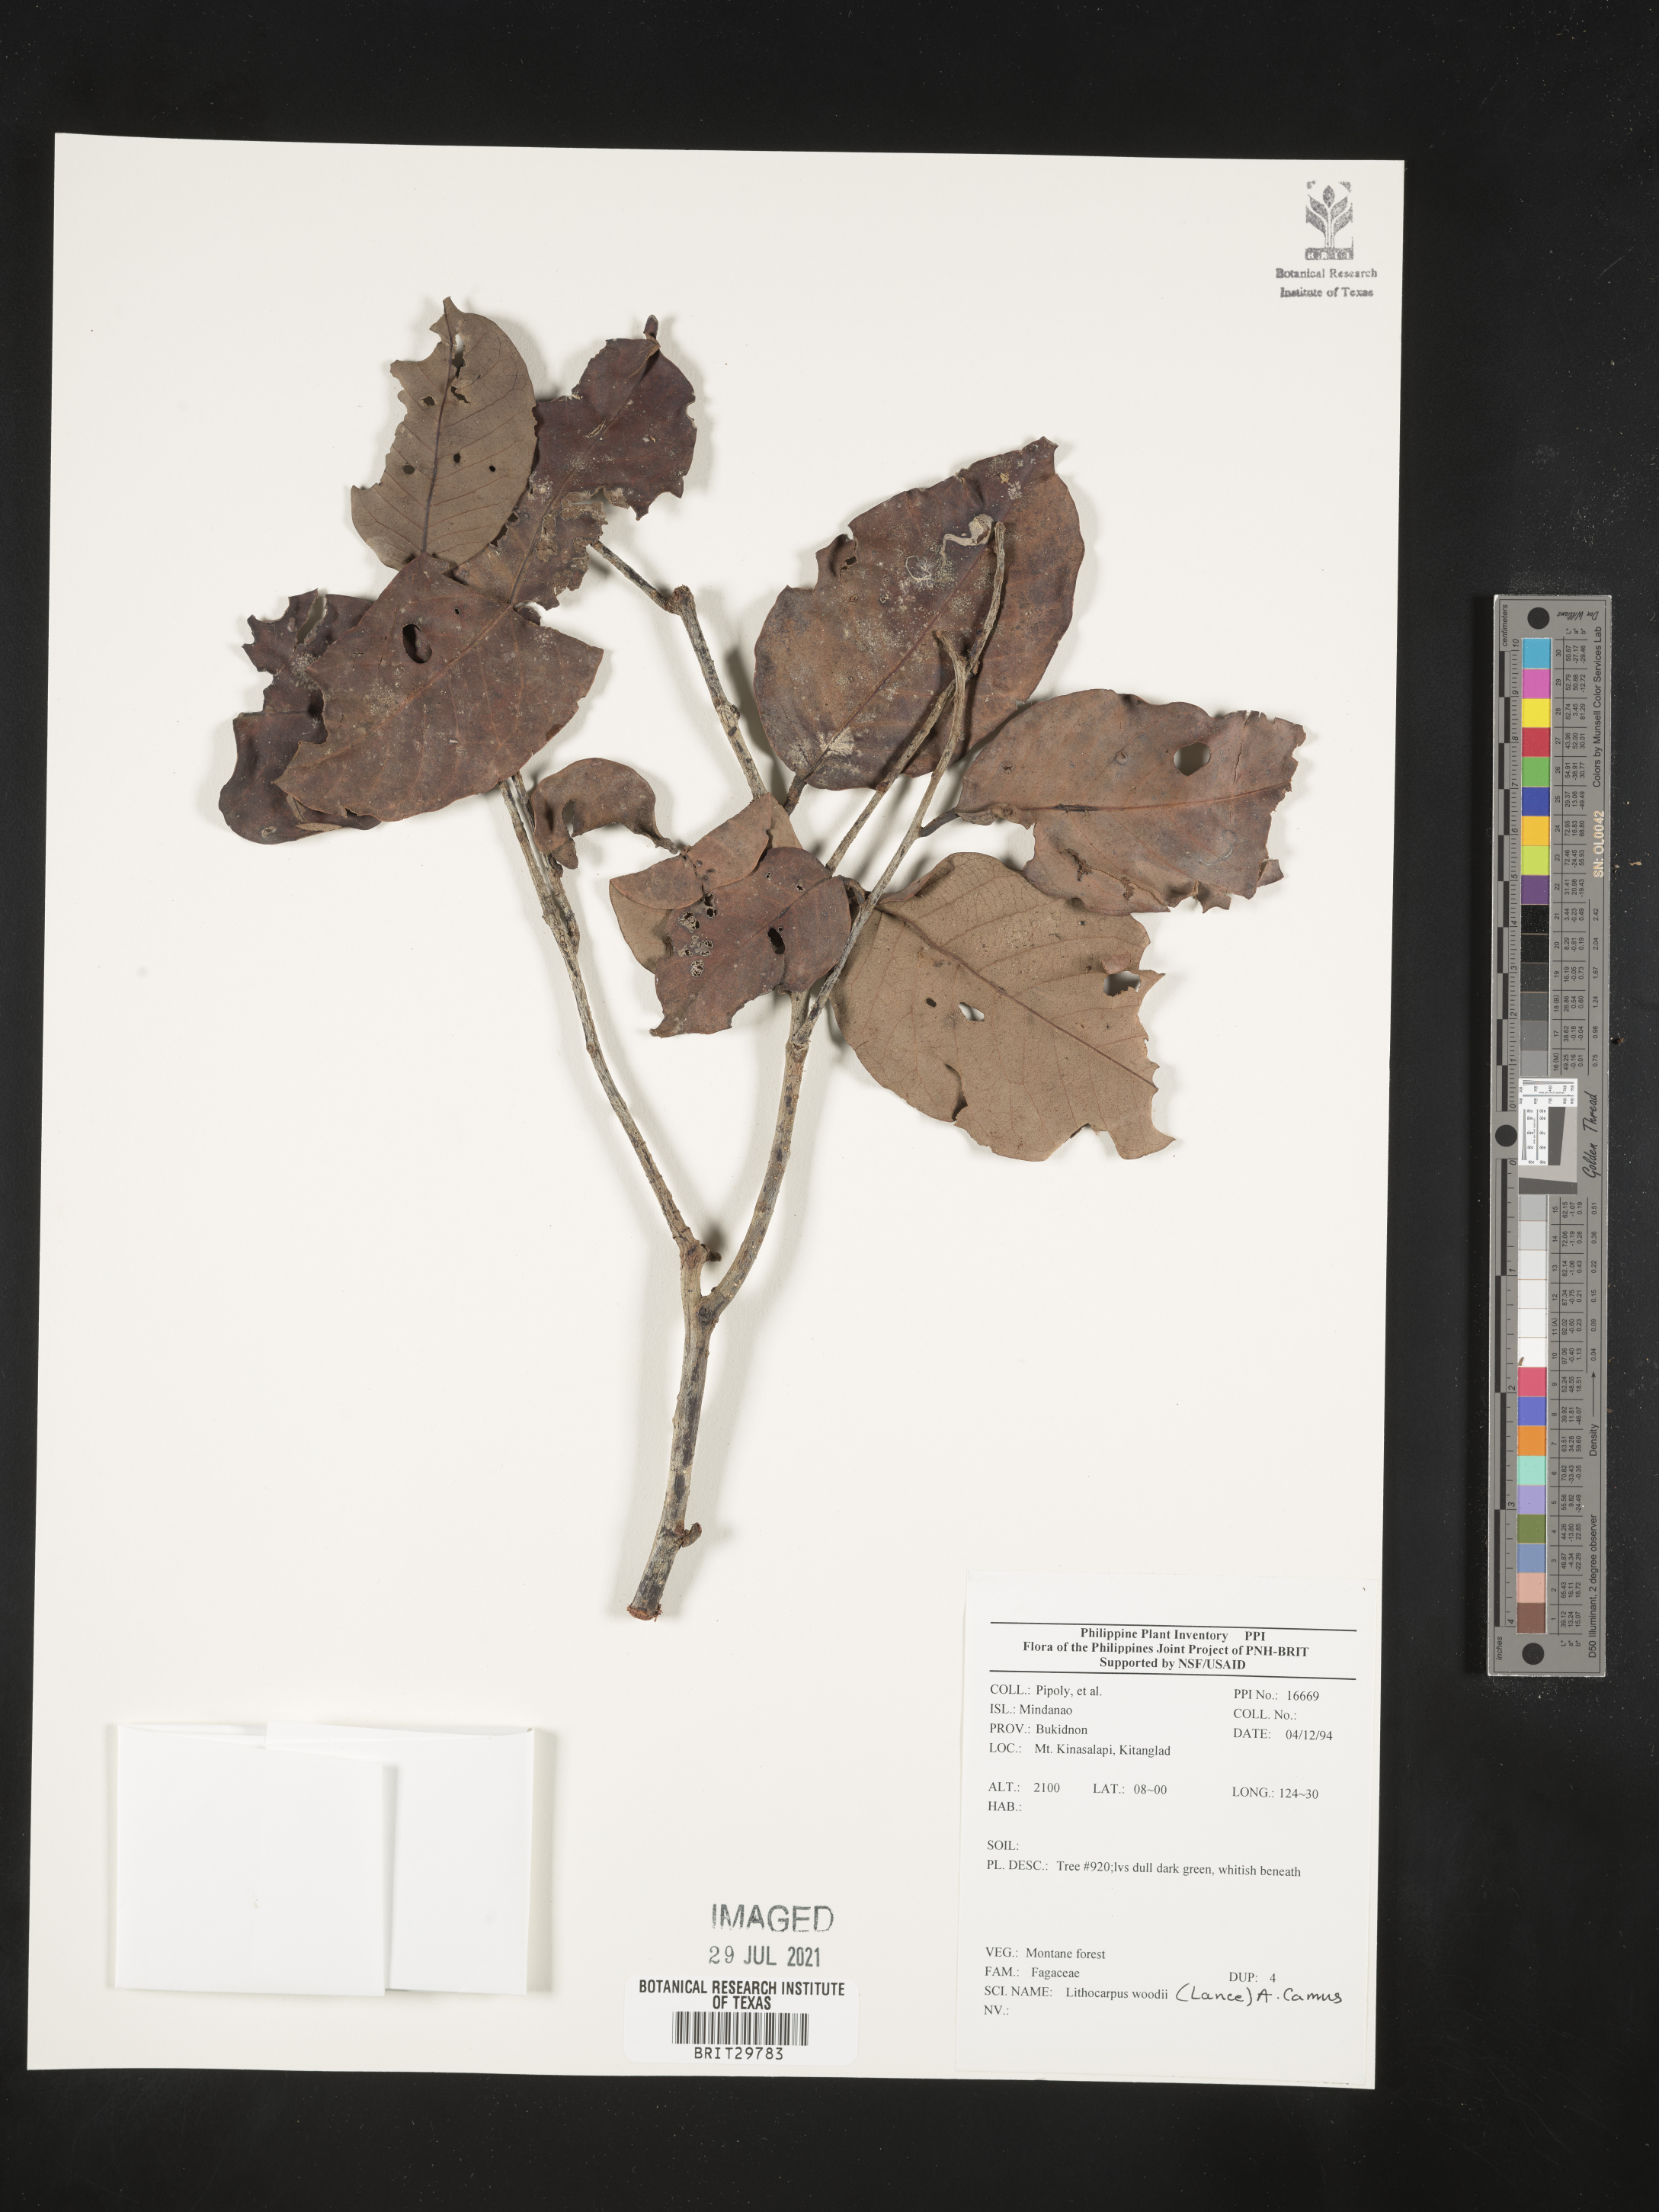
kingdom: Plantae
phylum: Tracheophyta
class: Magnoliopsida
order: Fagales
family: Fagaceae
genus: Lithocarpus
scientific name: Lithocarpus woodii
